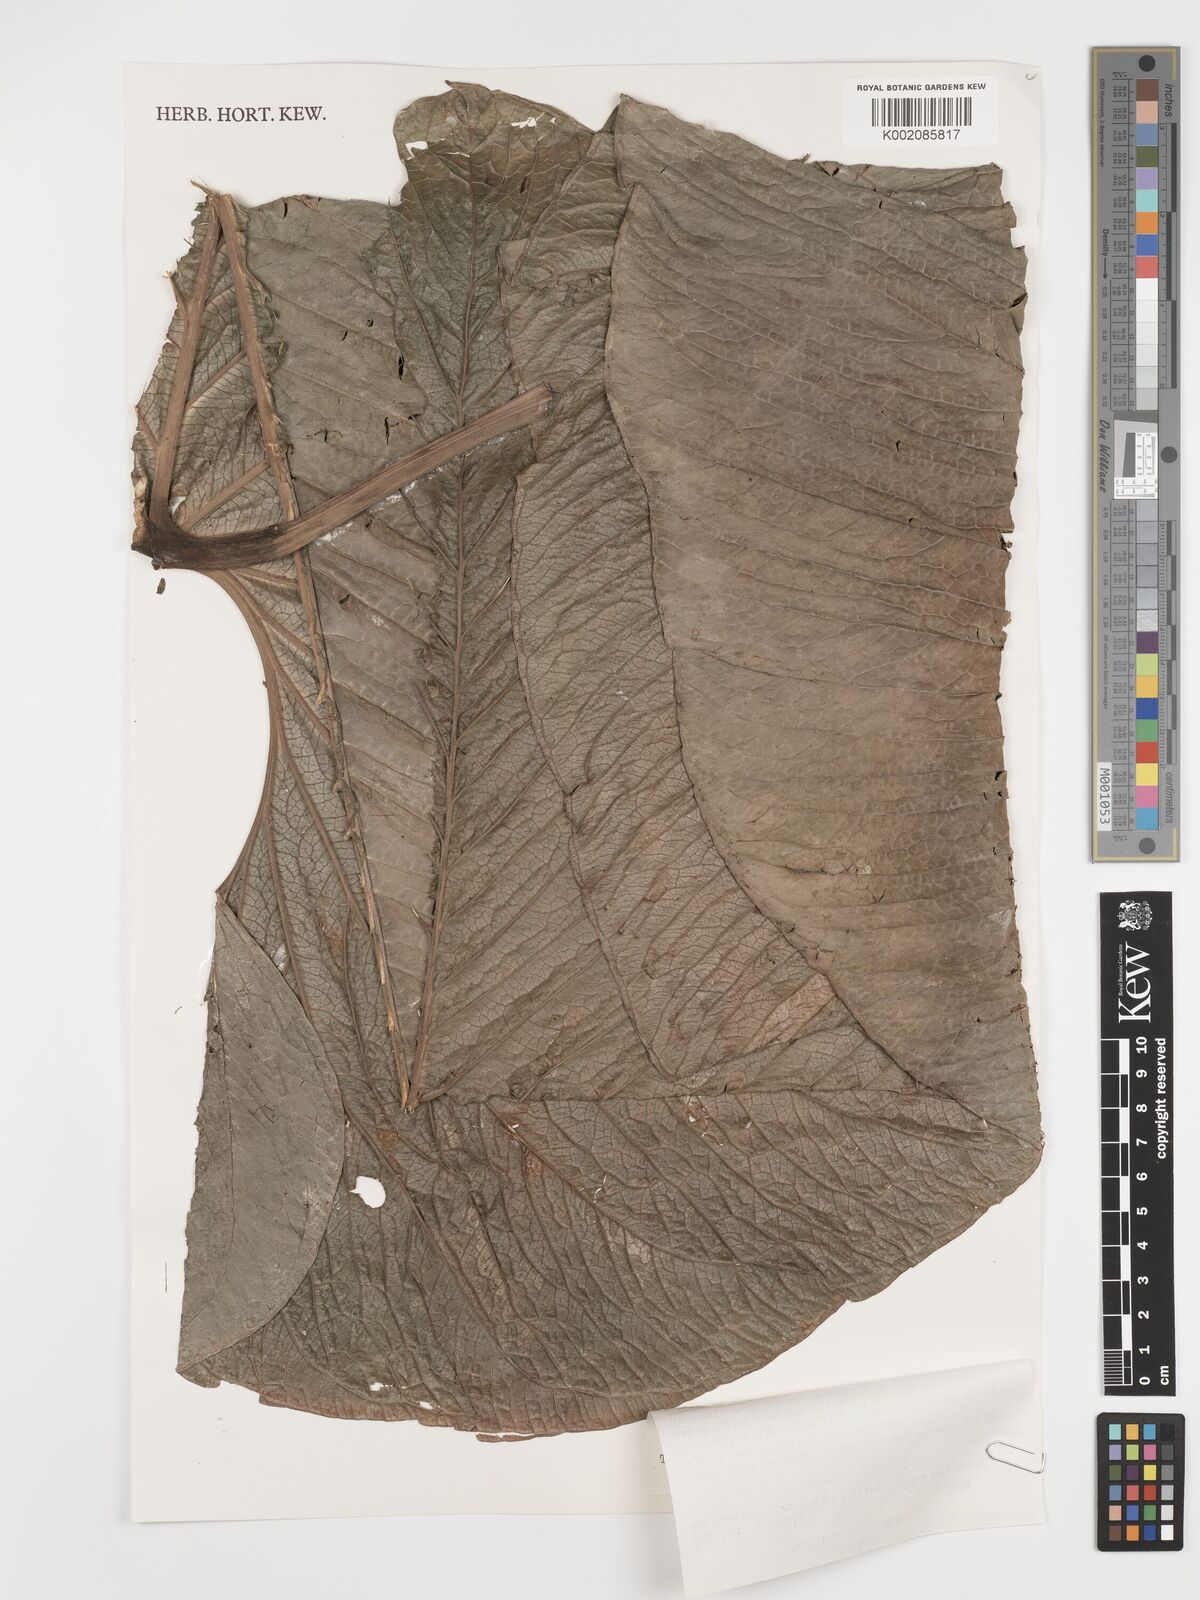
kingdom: Plantae
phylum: Tracheophyta
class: Liliopsida
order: Alismatales
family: Araceae
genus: Anthurium
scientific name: Anthurium corrugatum
